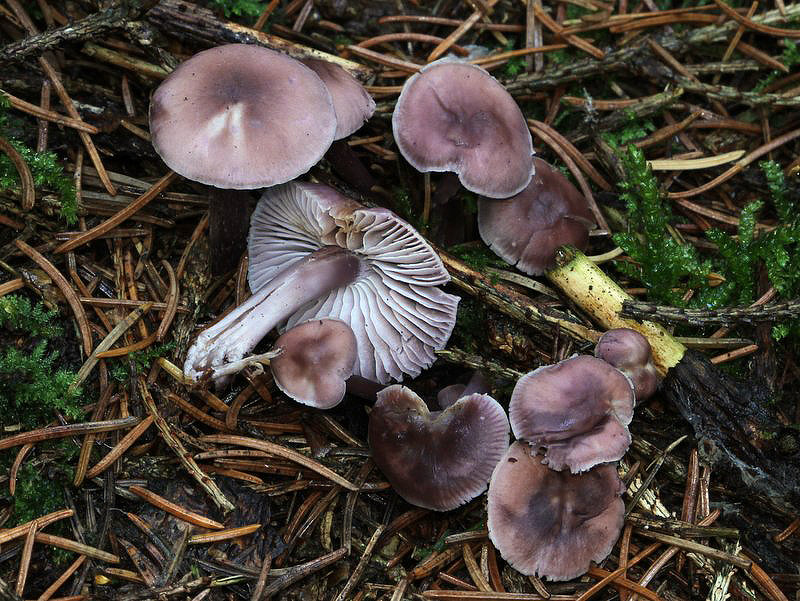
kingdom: Fungi
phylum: Basidiomycota
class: Agaricomycetes
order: Agaricales
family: Mycenaceae
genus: Mycena
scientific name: Mycena pura
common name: Lilac bonnet
